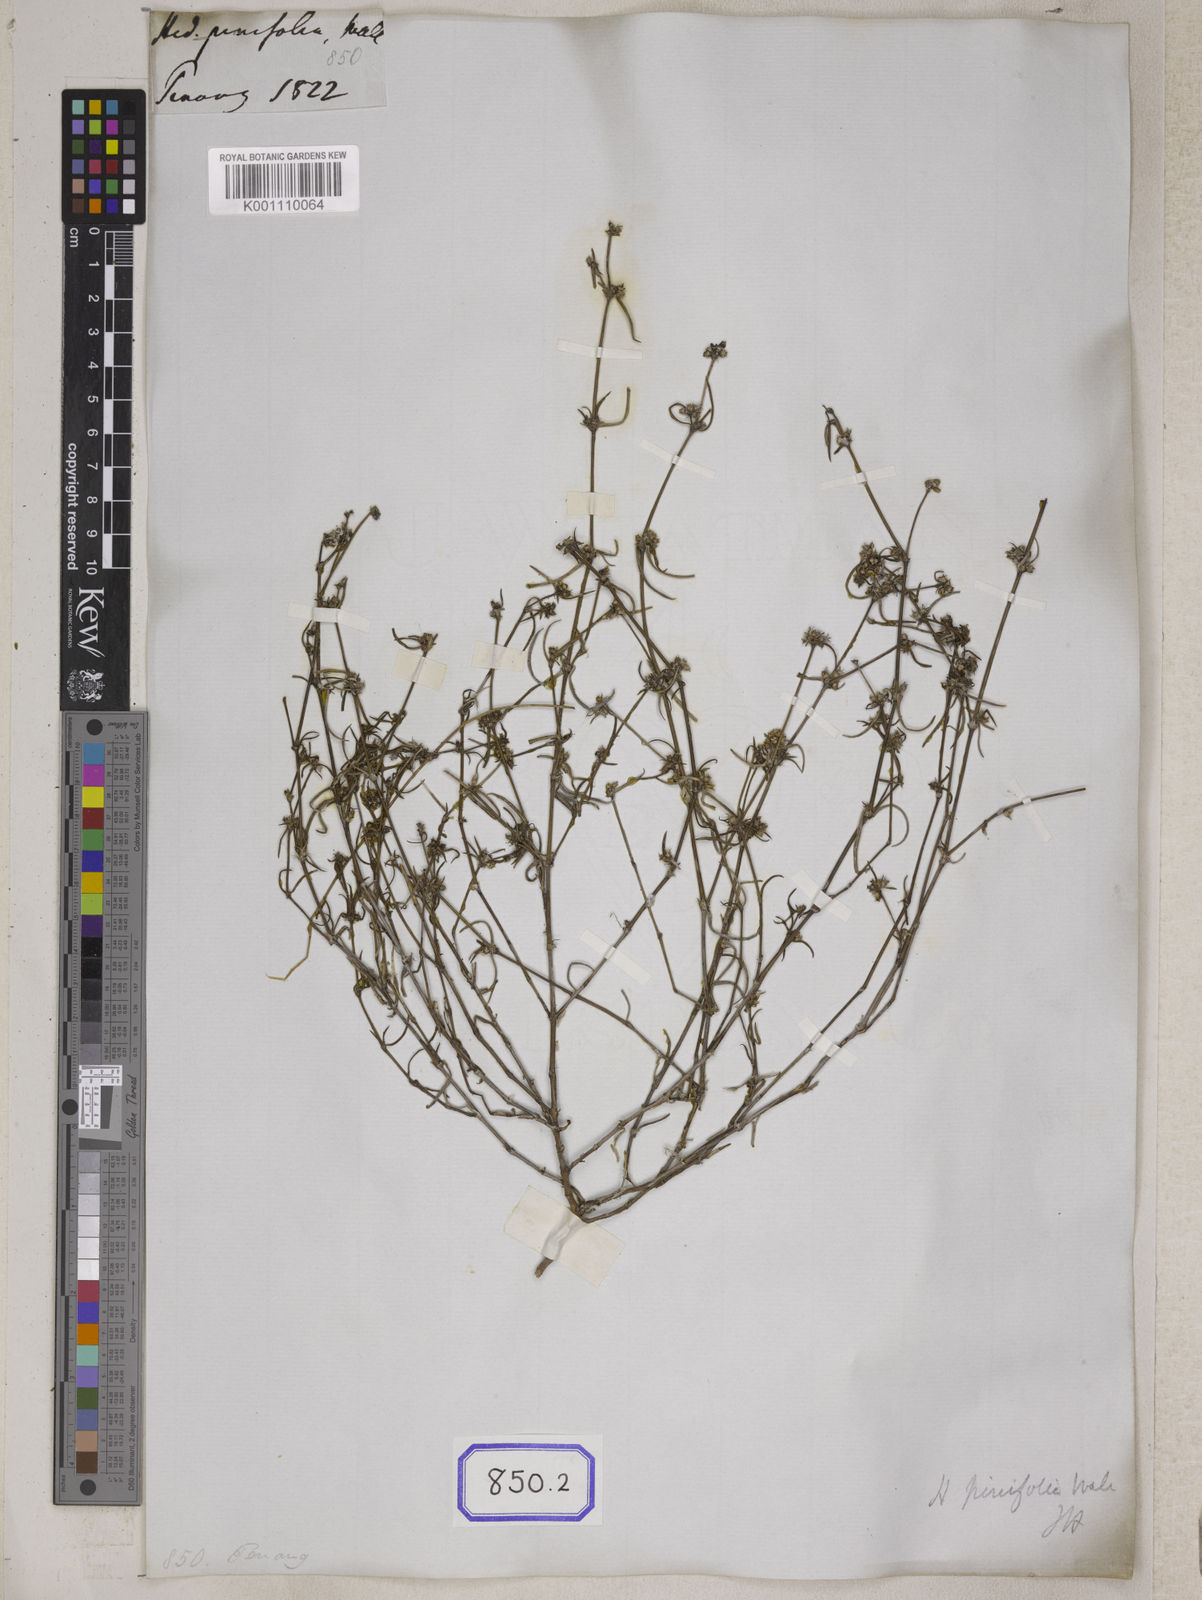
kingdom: Plantae
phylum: Tracheophyta
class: Magnoliopsida
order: Gentianales
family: Rubiaceae
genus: Hedyotis
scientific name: Hedyotis
